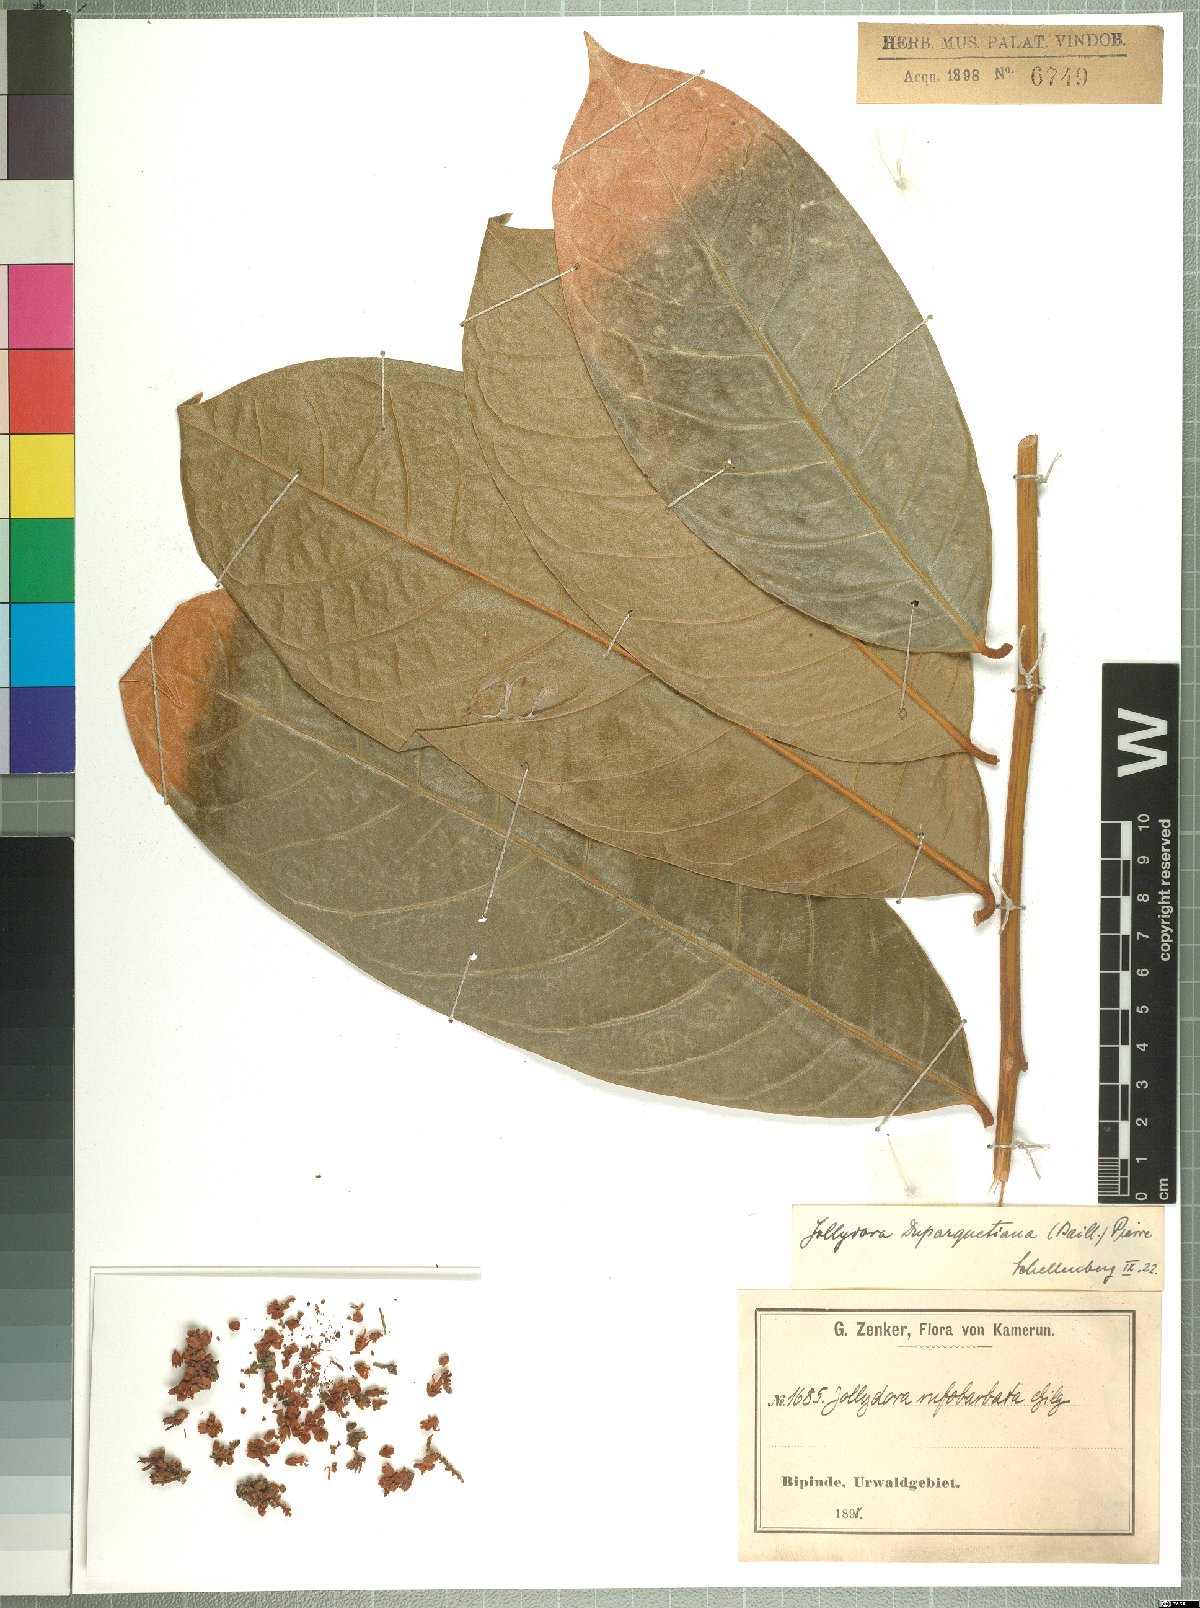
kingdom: Plantae
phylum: Tracheophyta
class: Magnoliopsida
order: Oxalidales
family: Connaraceae
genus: Jollydora
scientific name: Jollydora glandulosa
